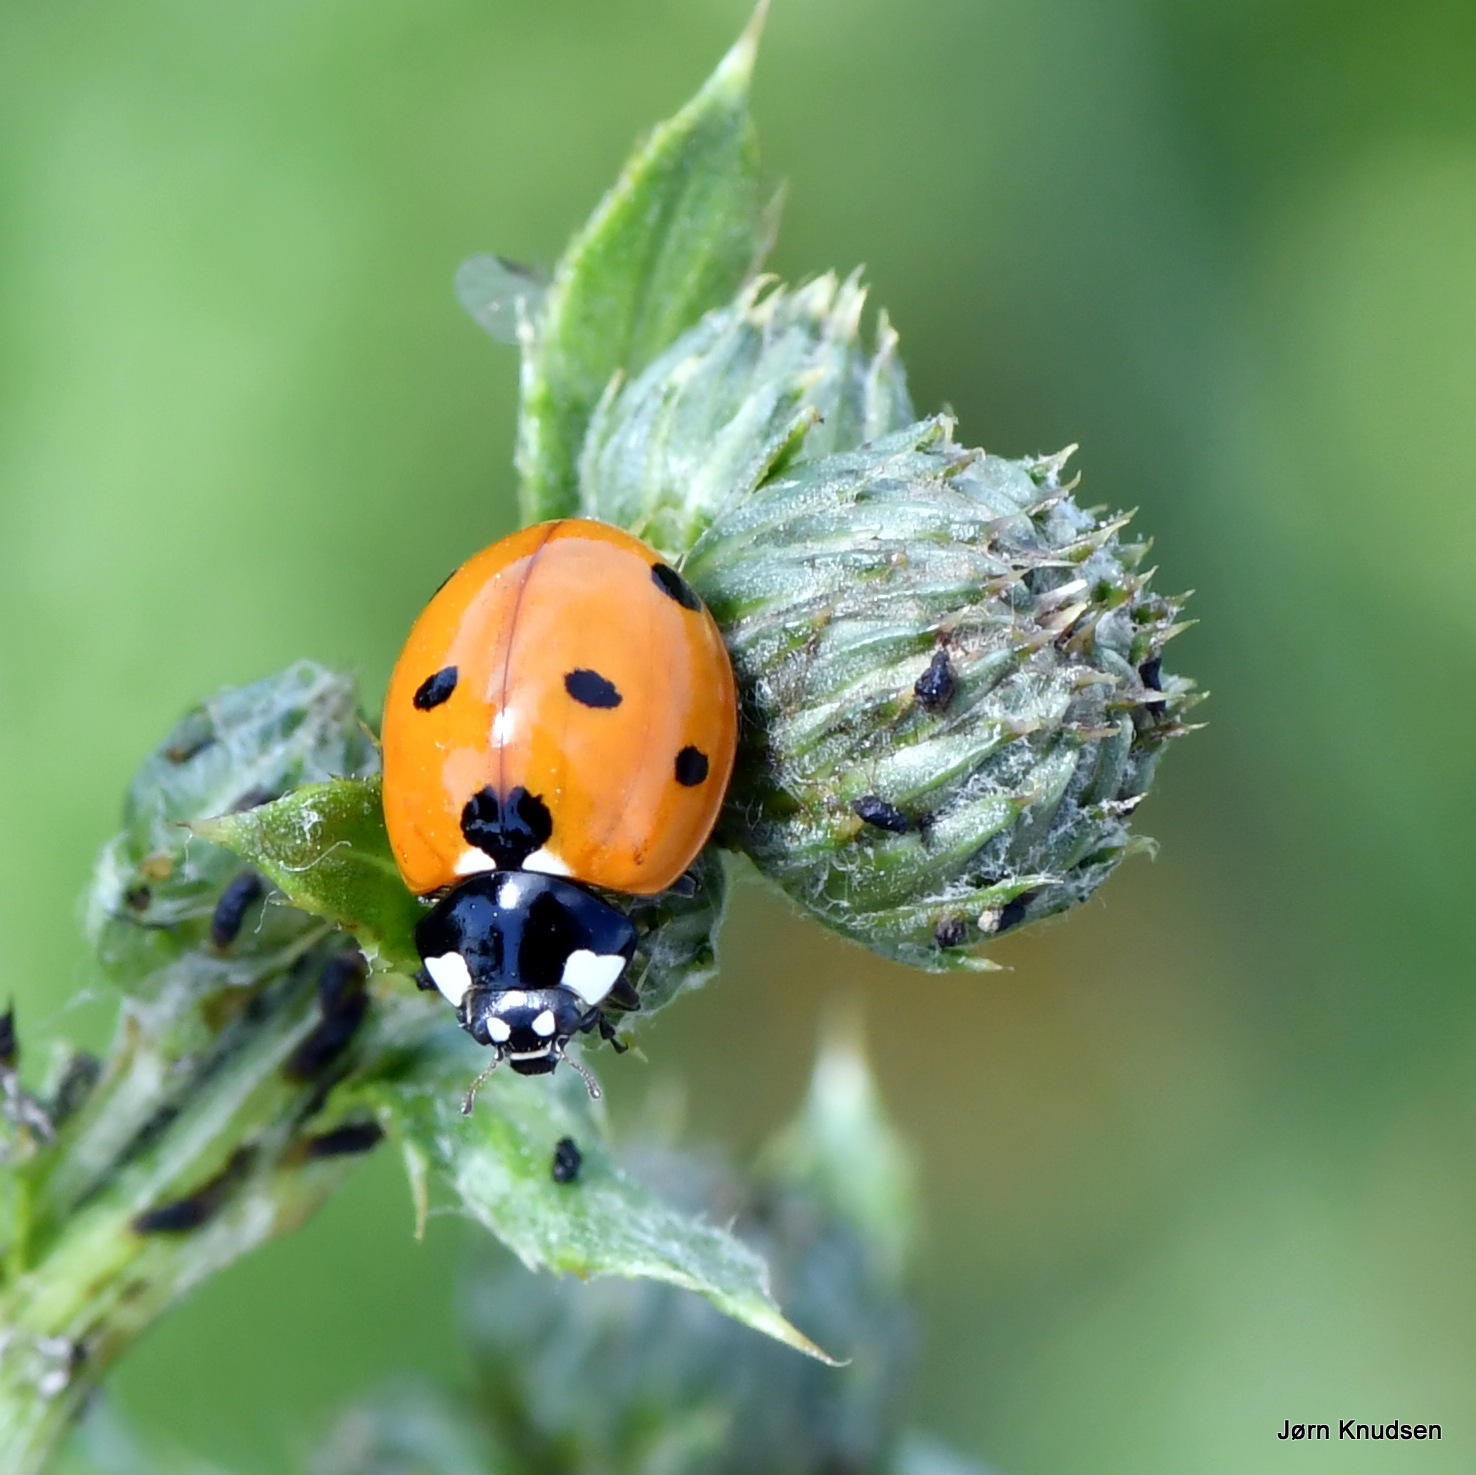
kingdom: Animalia
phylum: Arthropoda
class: Insecta
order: Coleoptera
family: Coccinellidae
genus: Coccinella
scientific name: Coccinella septempunctata
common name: Syvplettet mariehøne
